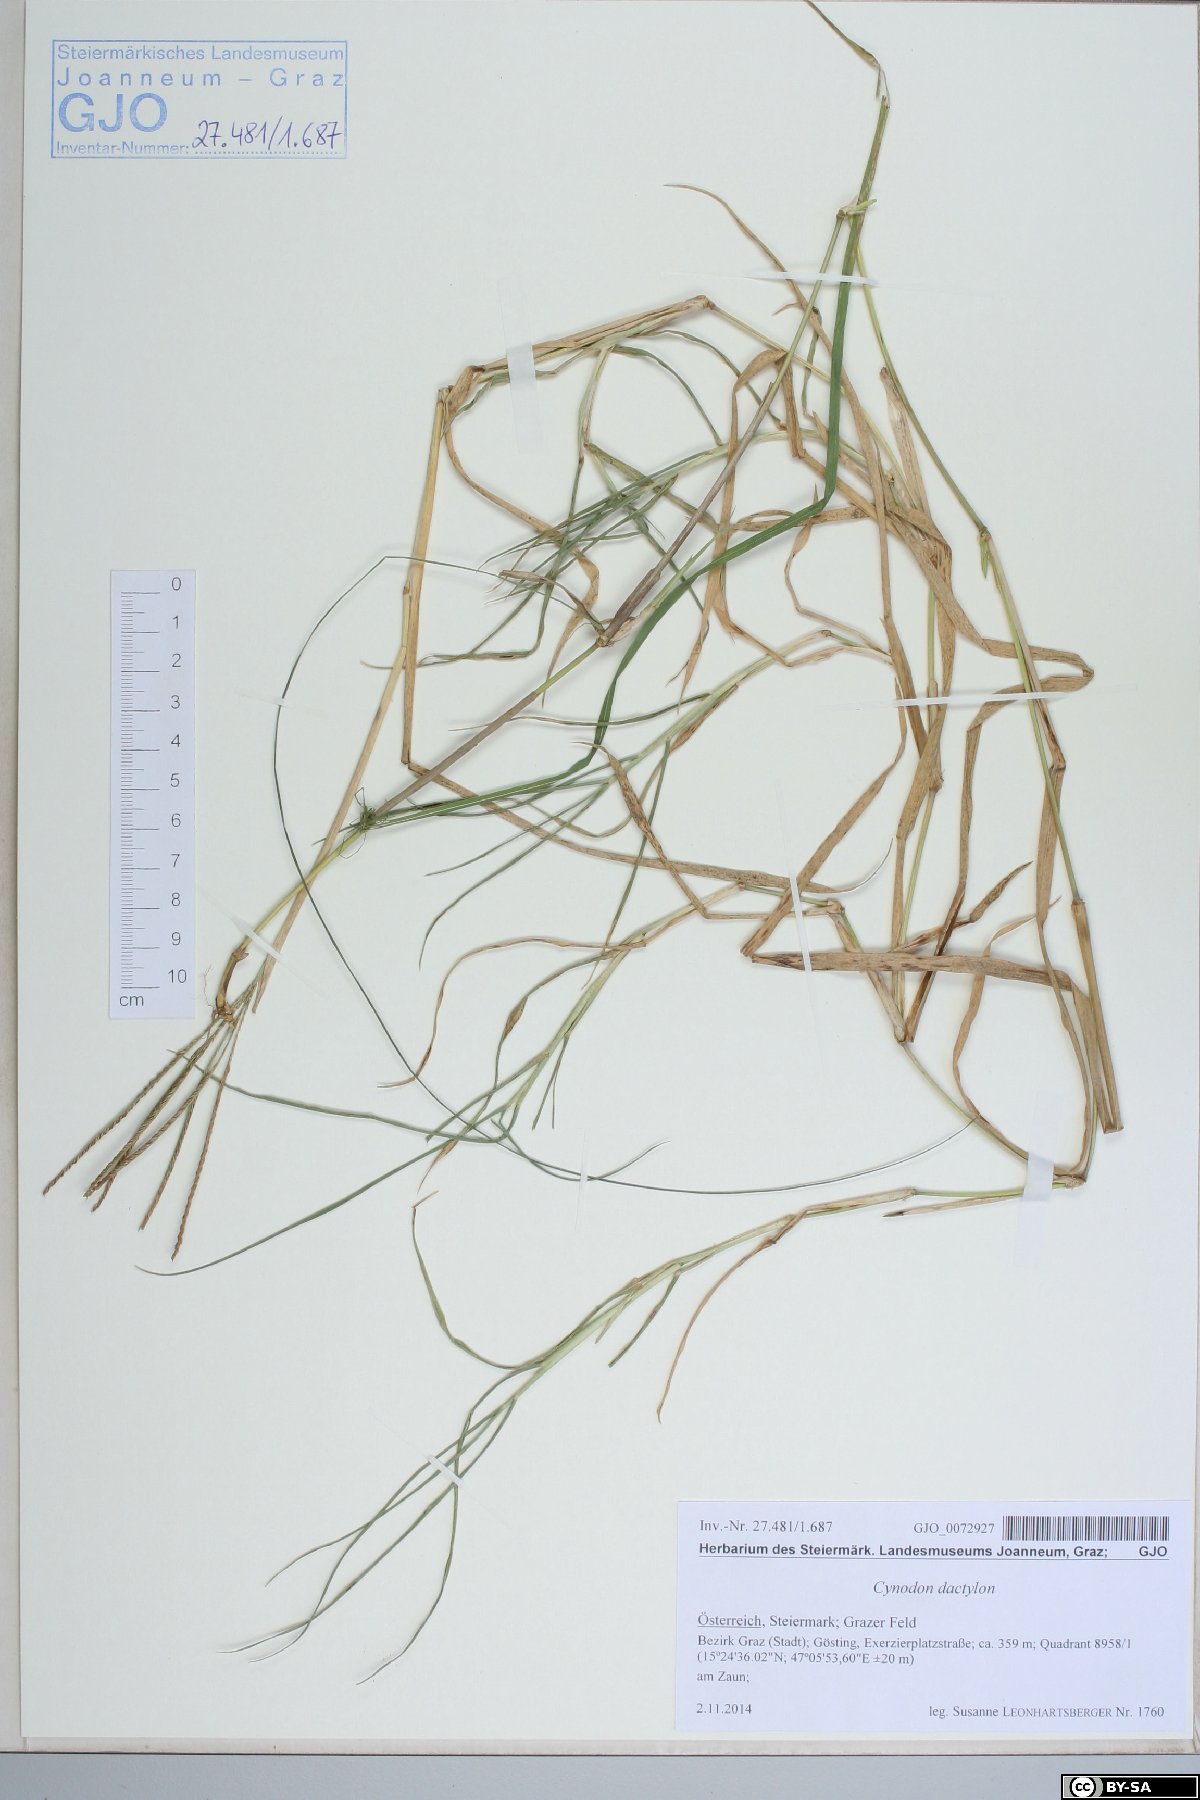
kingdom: Plantae
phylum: Tracheophyta
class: Liliopsida
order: Poales
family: Poaceae
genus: Cynodon
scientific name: Cynodon dactylon
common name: Bermuda grass
